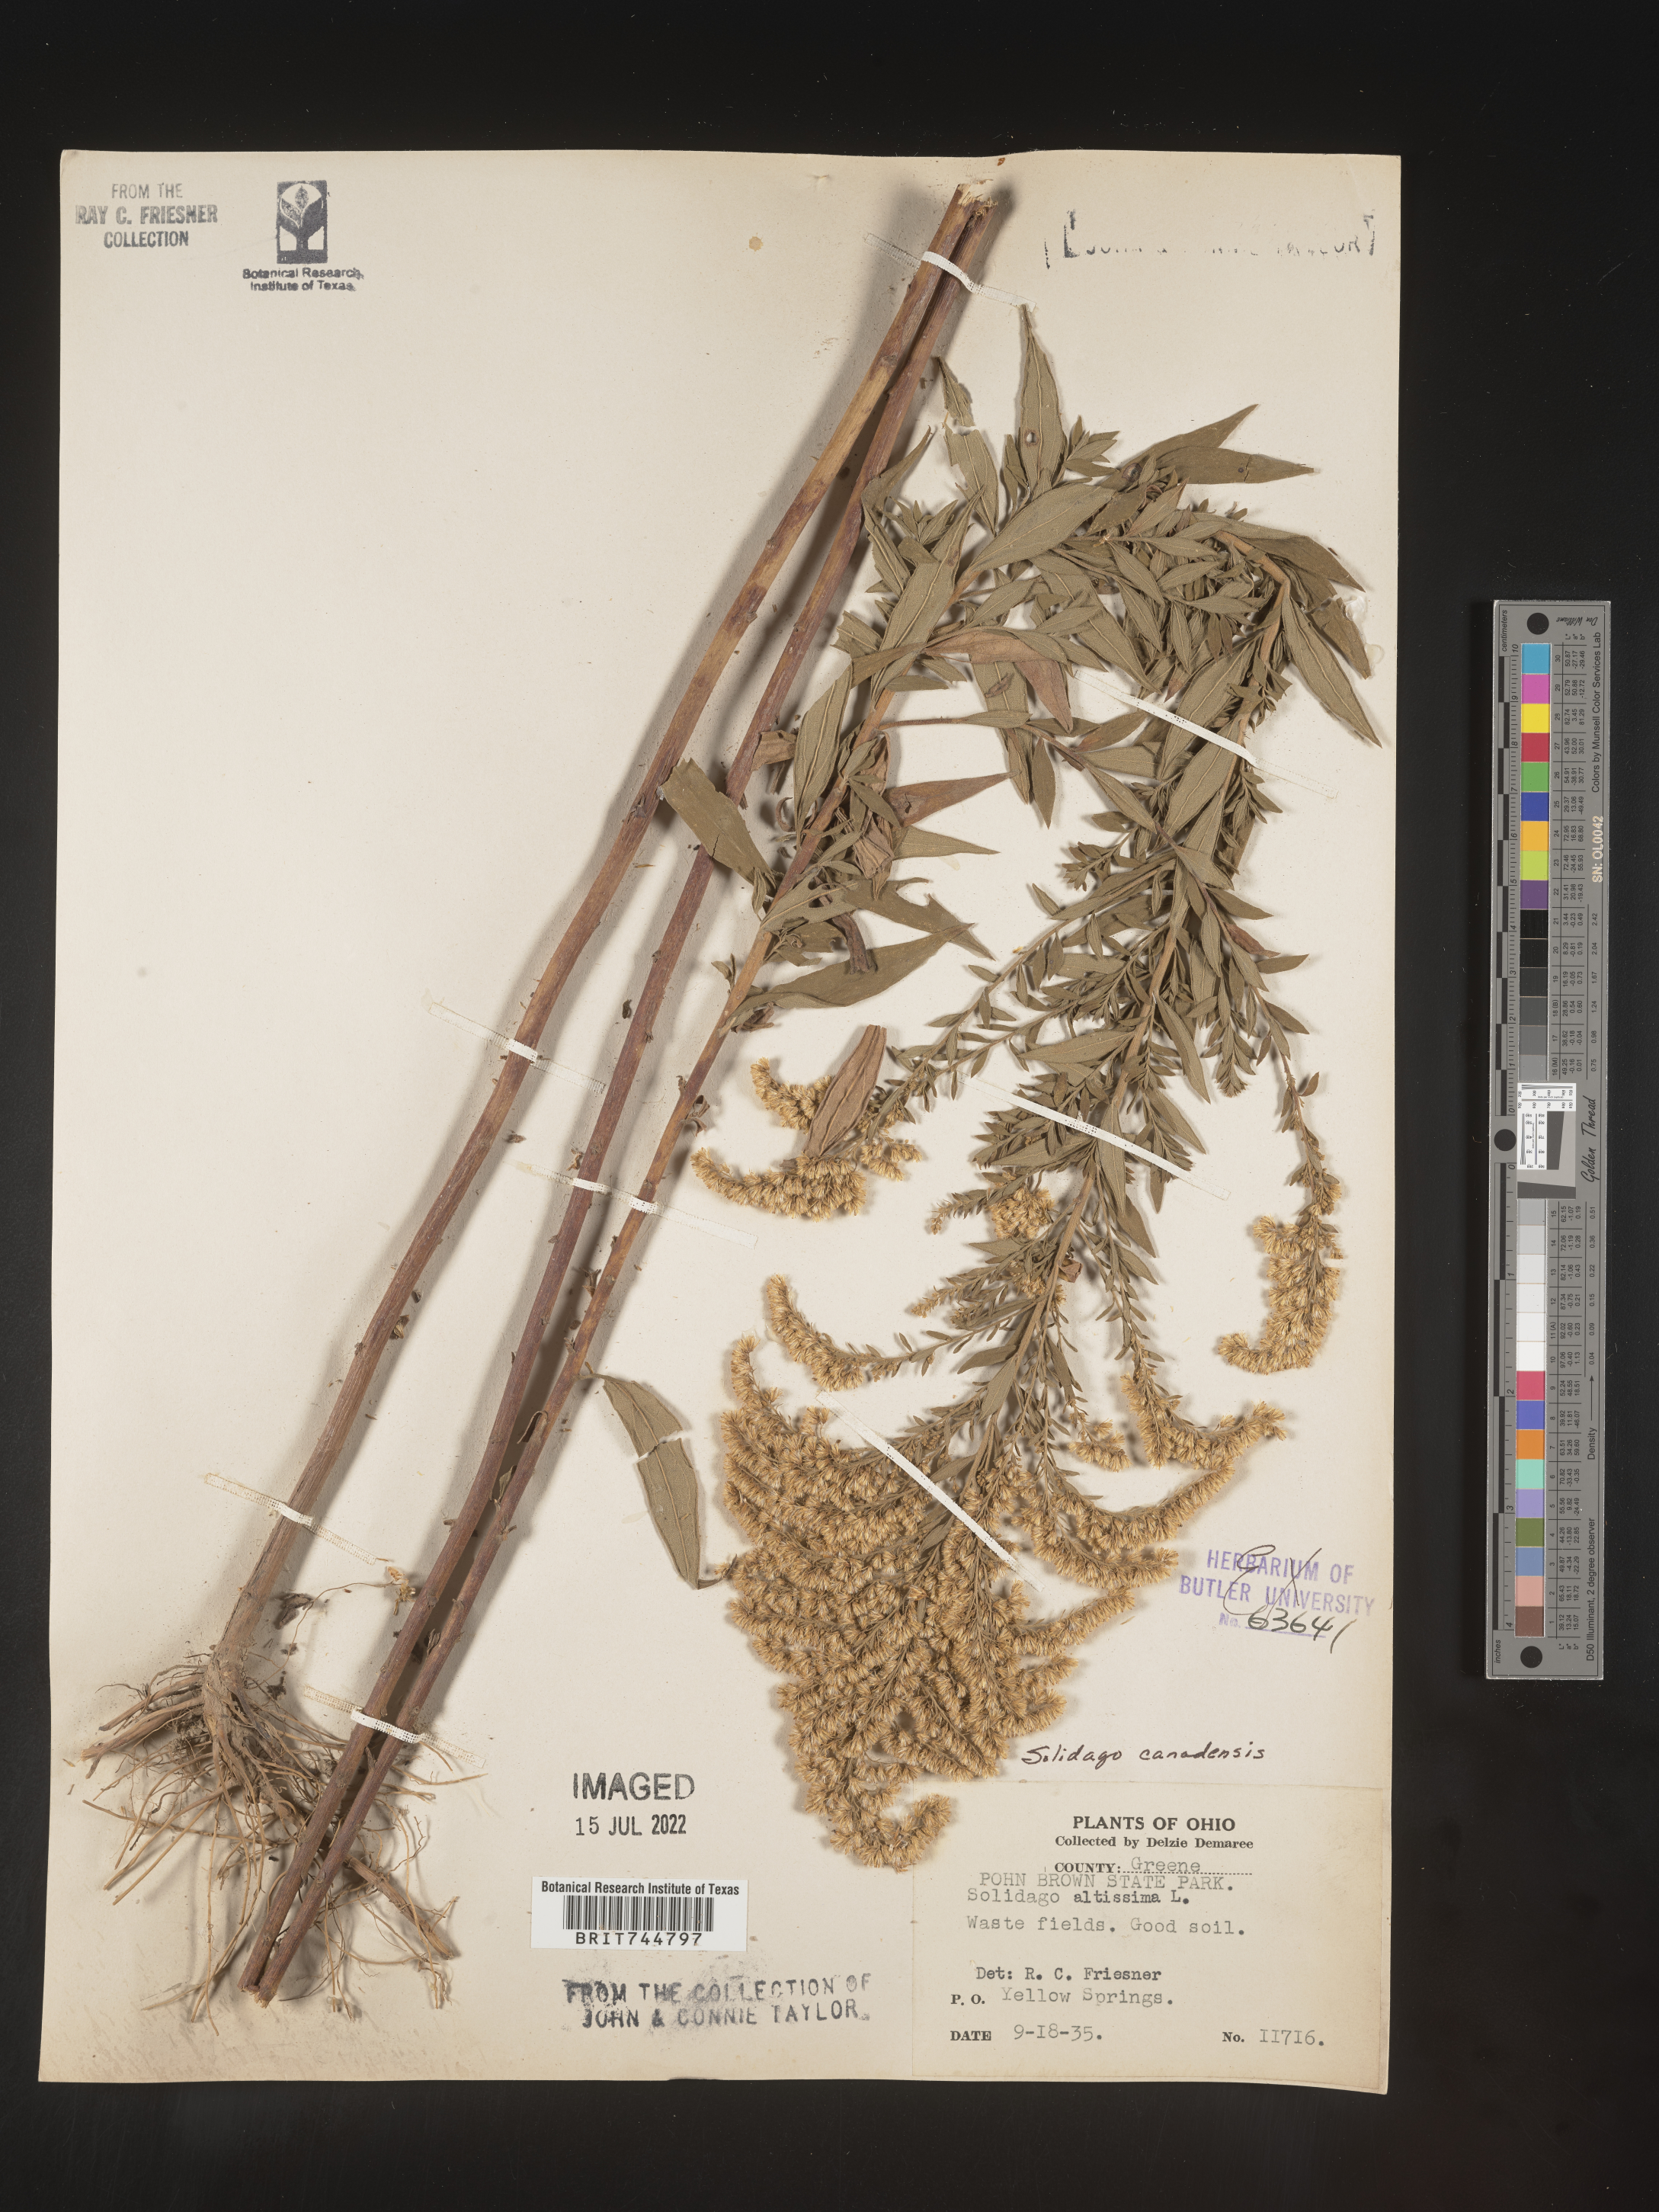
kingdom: Plantae
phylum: Tracheophyta
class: Magnoliopsida
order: Asterales
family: Asteraceae
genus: Solidago
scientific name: Solidago canadensis
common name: Canada goldenrod
